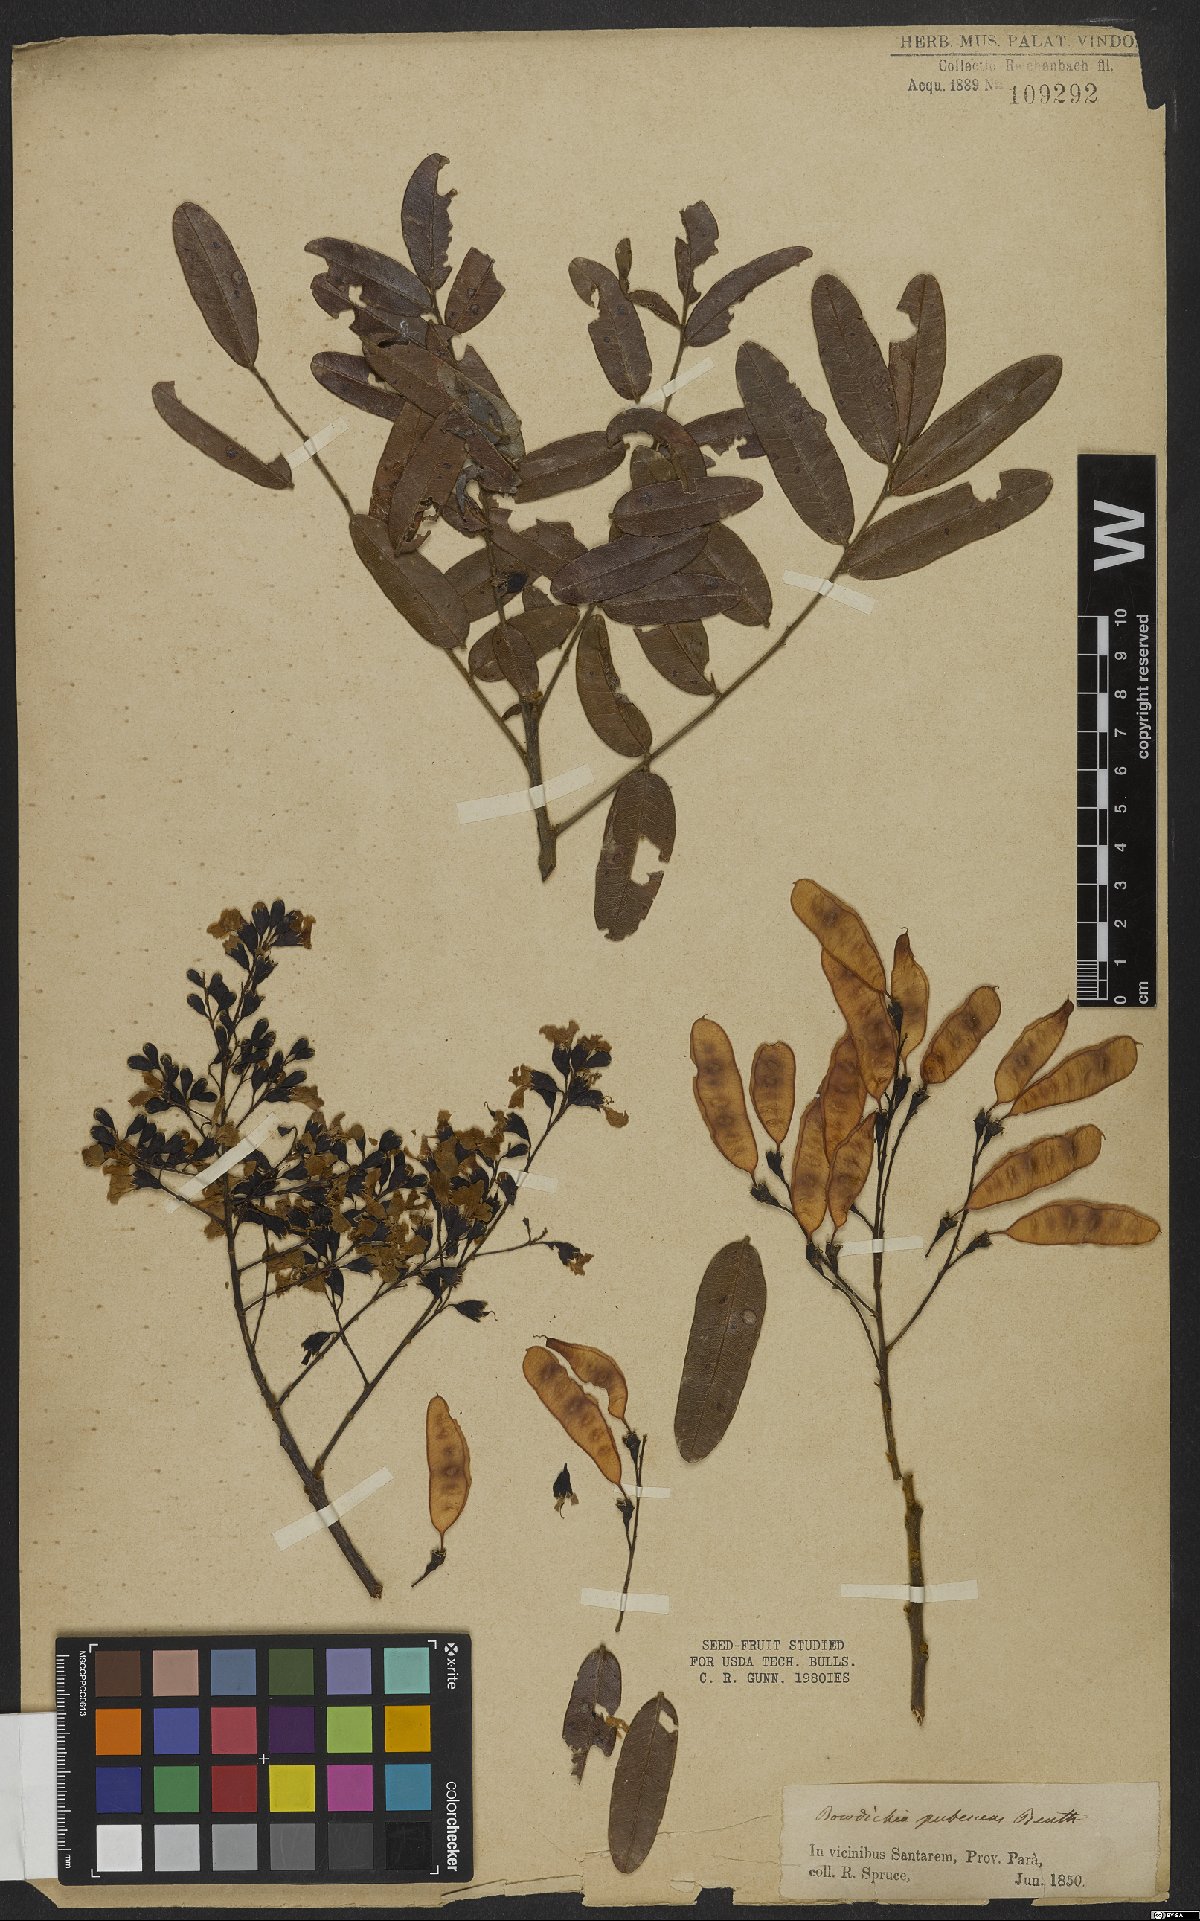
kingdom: Plantae
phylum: Tracheophyta
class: Magnoliopsida
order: Fabales
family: Fabaceae
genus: Bowdichia
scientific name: Bowdichia virgilioides
